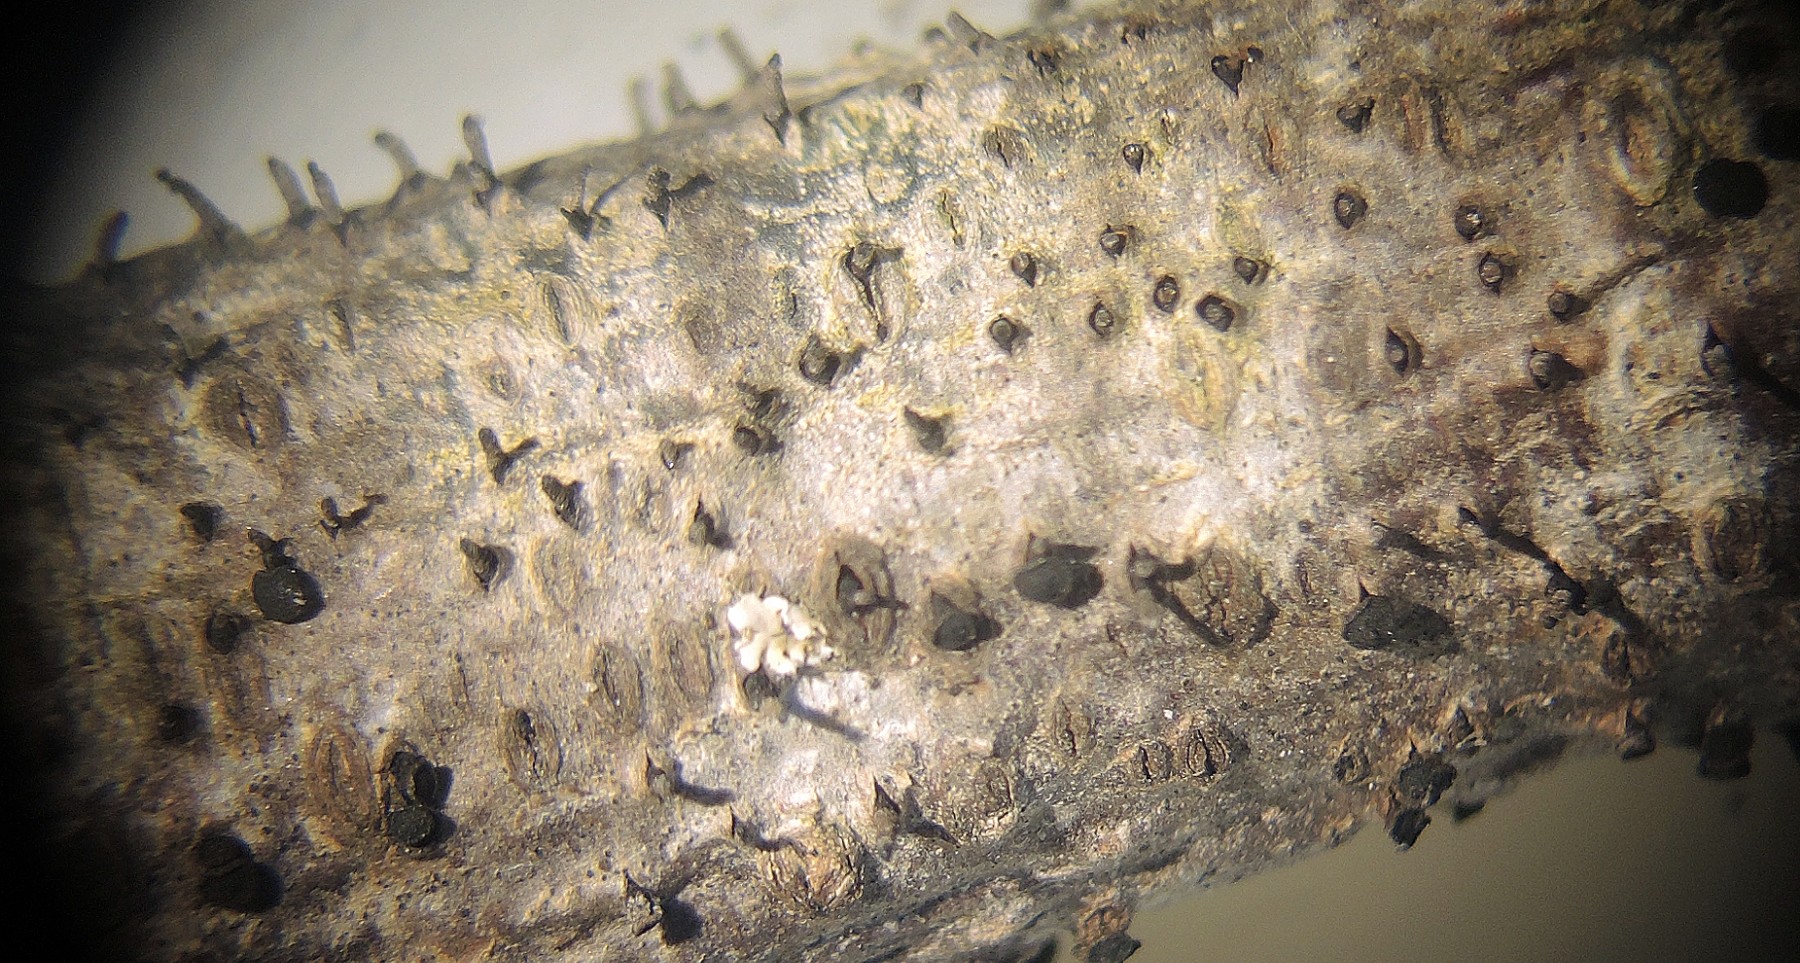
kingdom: Fungi
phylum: Ascomycota
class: Leotiomycetes
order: Helotiales
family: Dermateaceae
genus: Dermea
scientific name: Dermea prunastri
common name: blomme-klyngeskive
